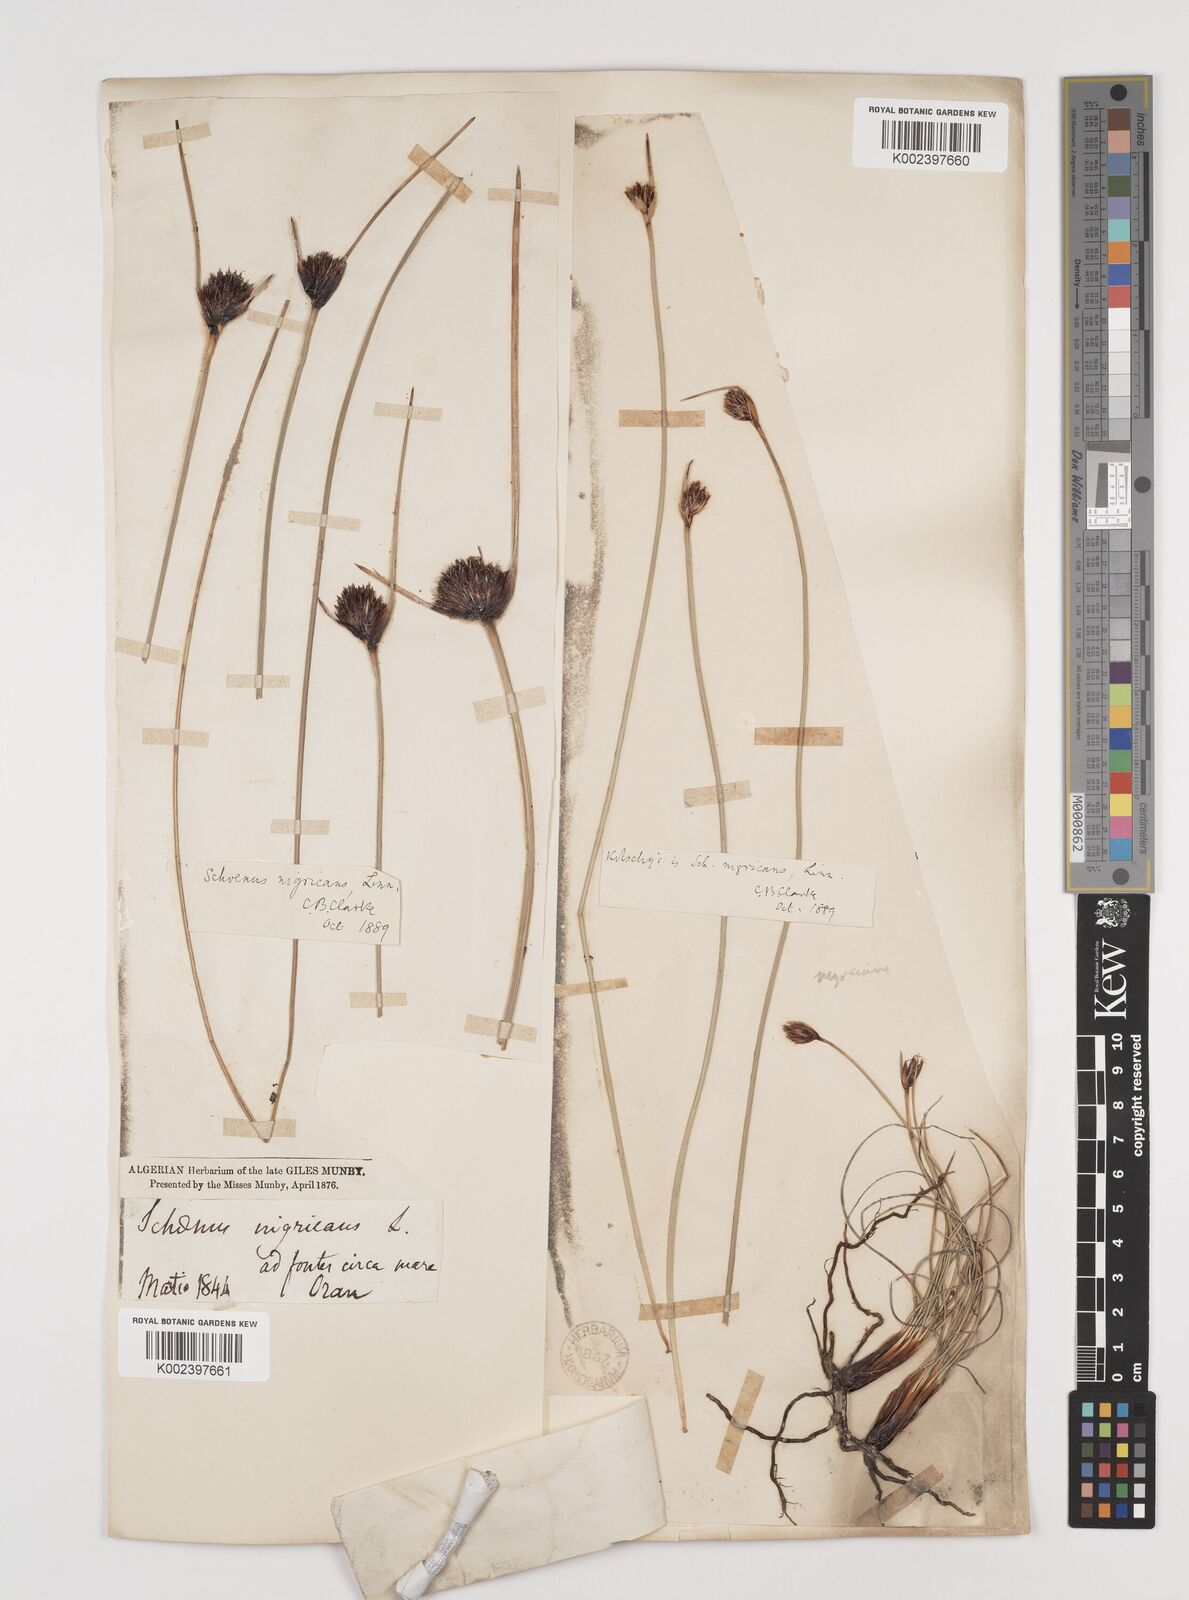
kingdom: Plantae
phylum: Tracheophyta
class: Liliopsida
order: Poales
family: Cyperaceae
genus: Schoenus
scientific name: Schoenus nigricans
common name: Black bog-rush
